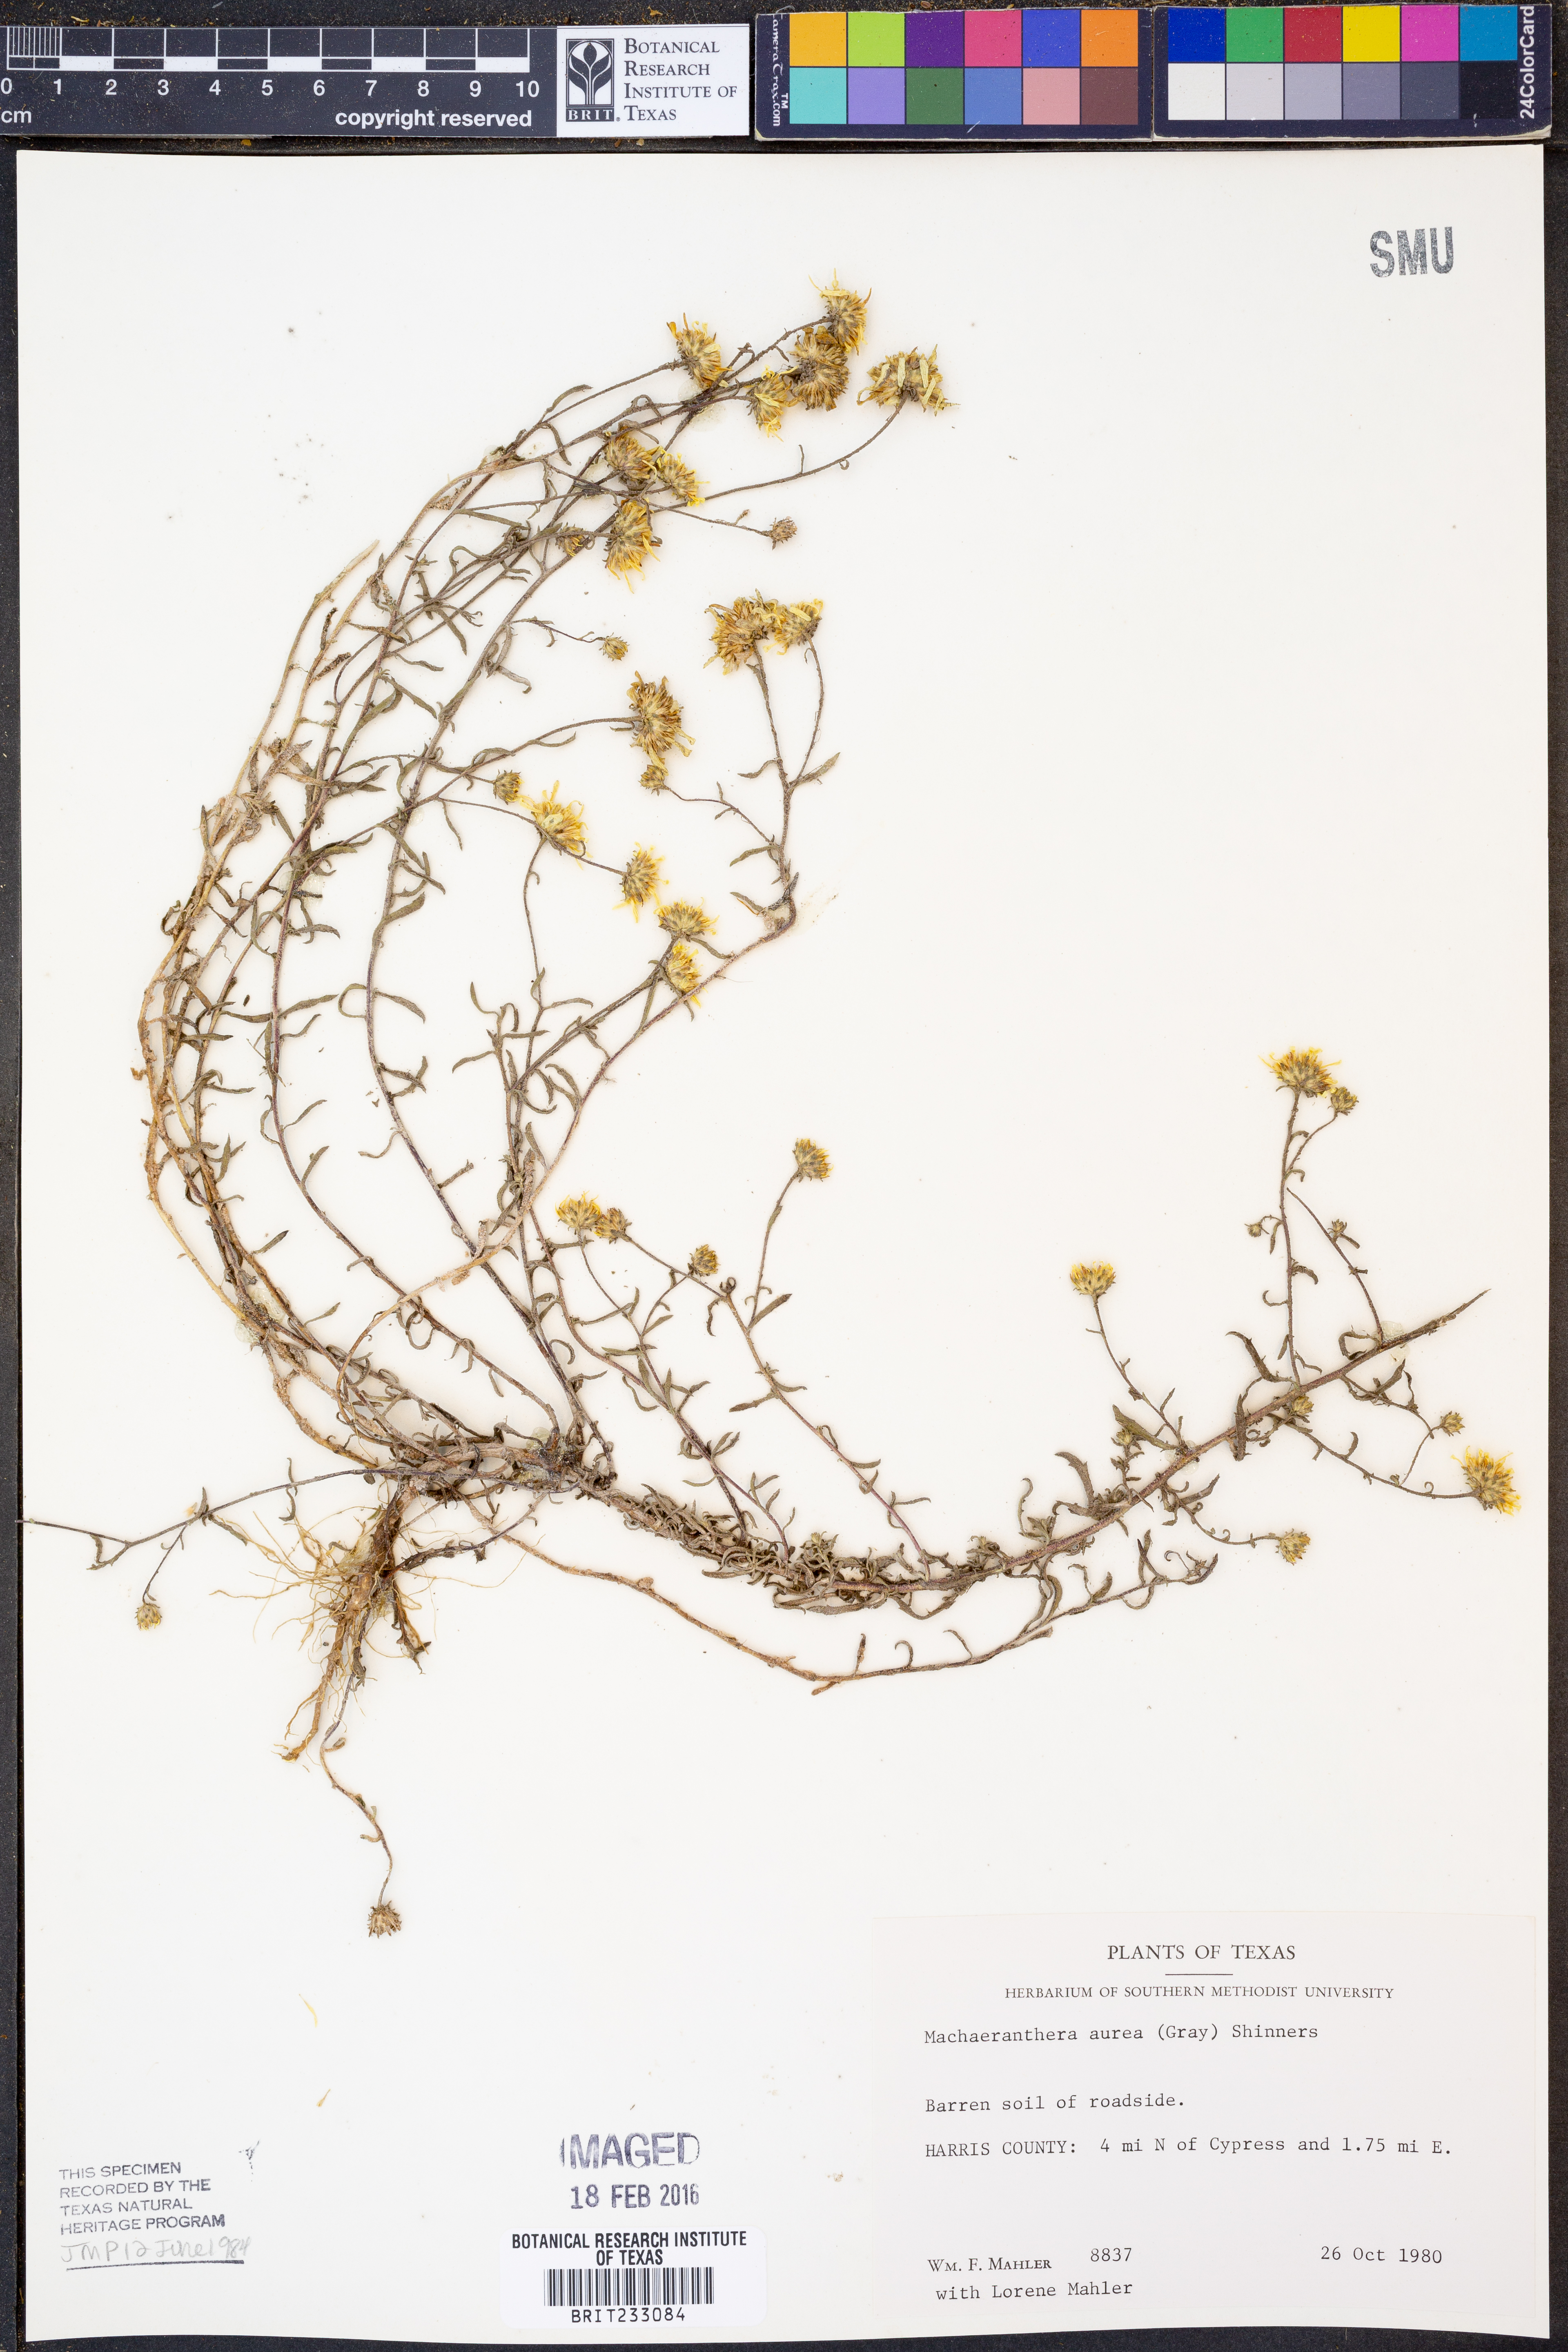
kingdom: Plantae
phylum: Tracheophyta
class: Magnoliopsida
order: Asterales
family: Asteraceae
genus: Rayjacksonia
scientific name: Rayjacksonia aurea
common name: Houston camphor daisy
